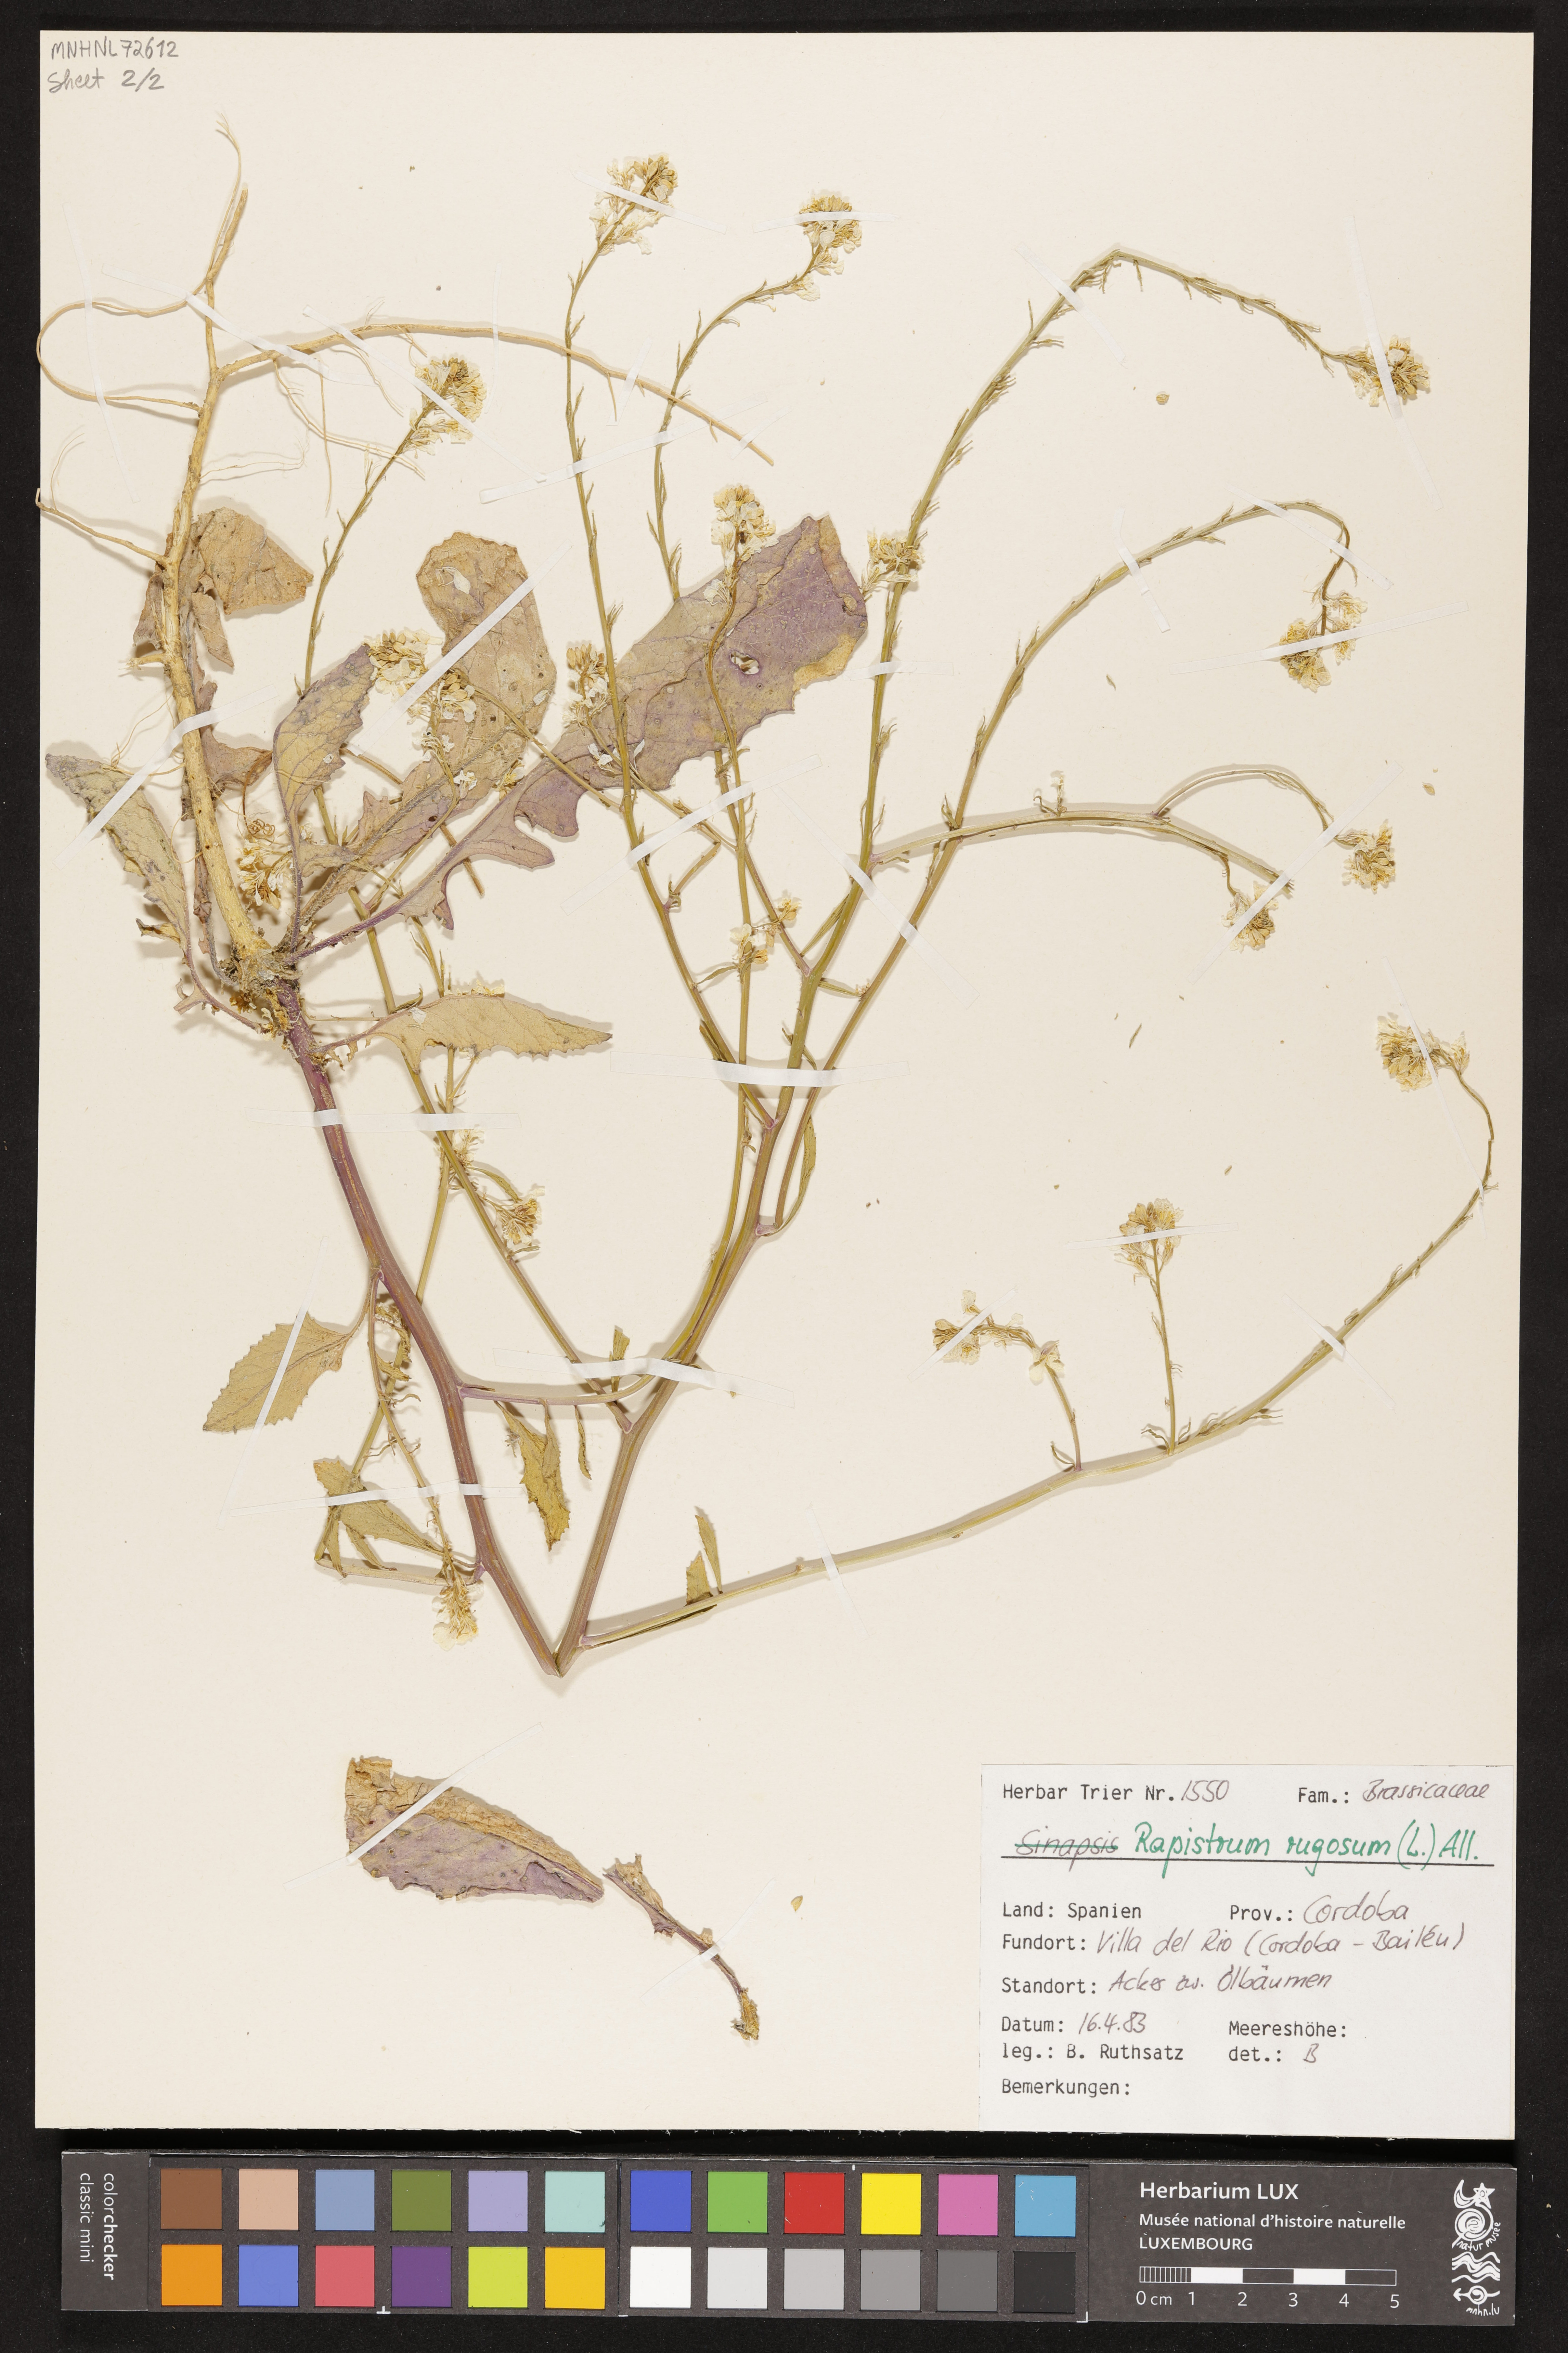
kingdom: Plantae
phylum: Tracheophyta
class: Magnoliopsida
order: Brassicales
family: Brassicaceae
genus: Rapistrum
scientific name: Rapistrum rugosum
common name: Annual bastardcabbage
